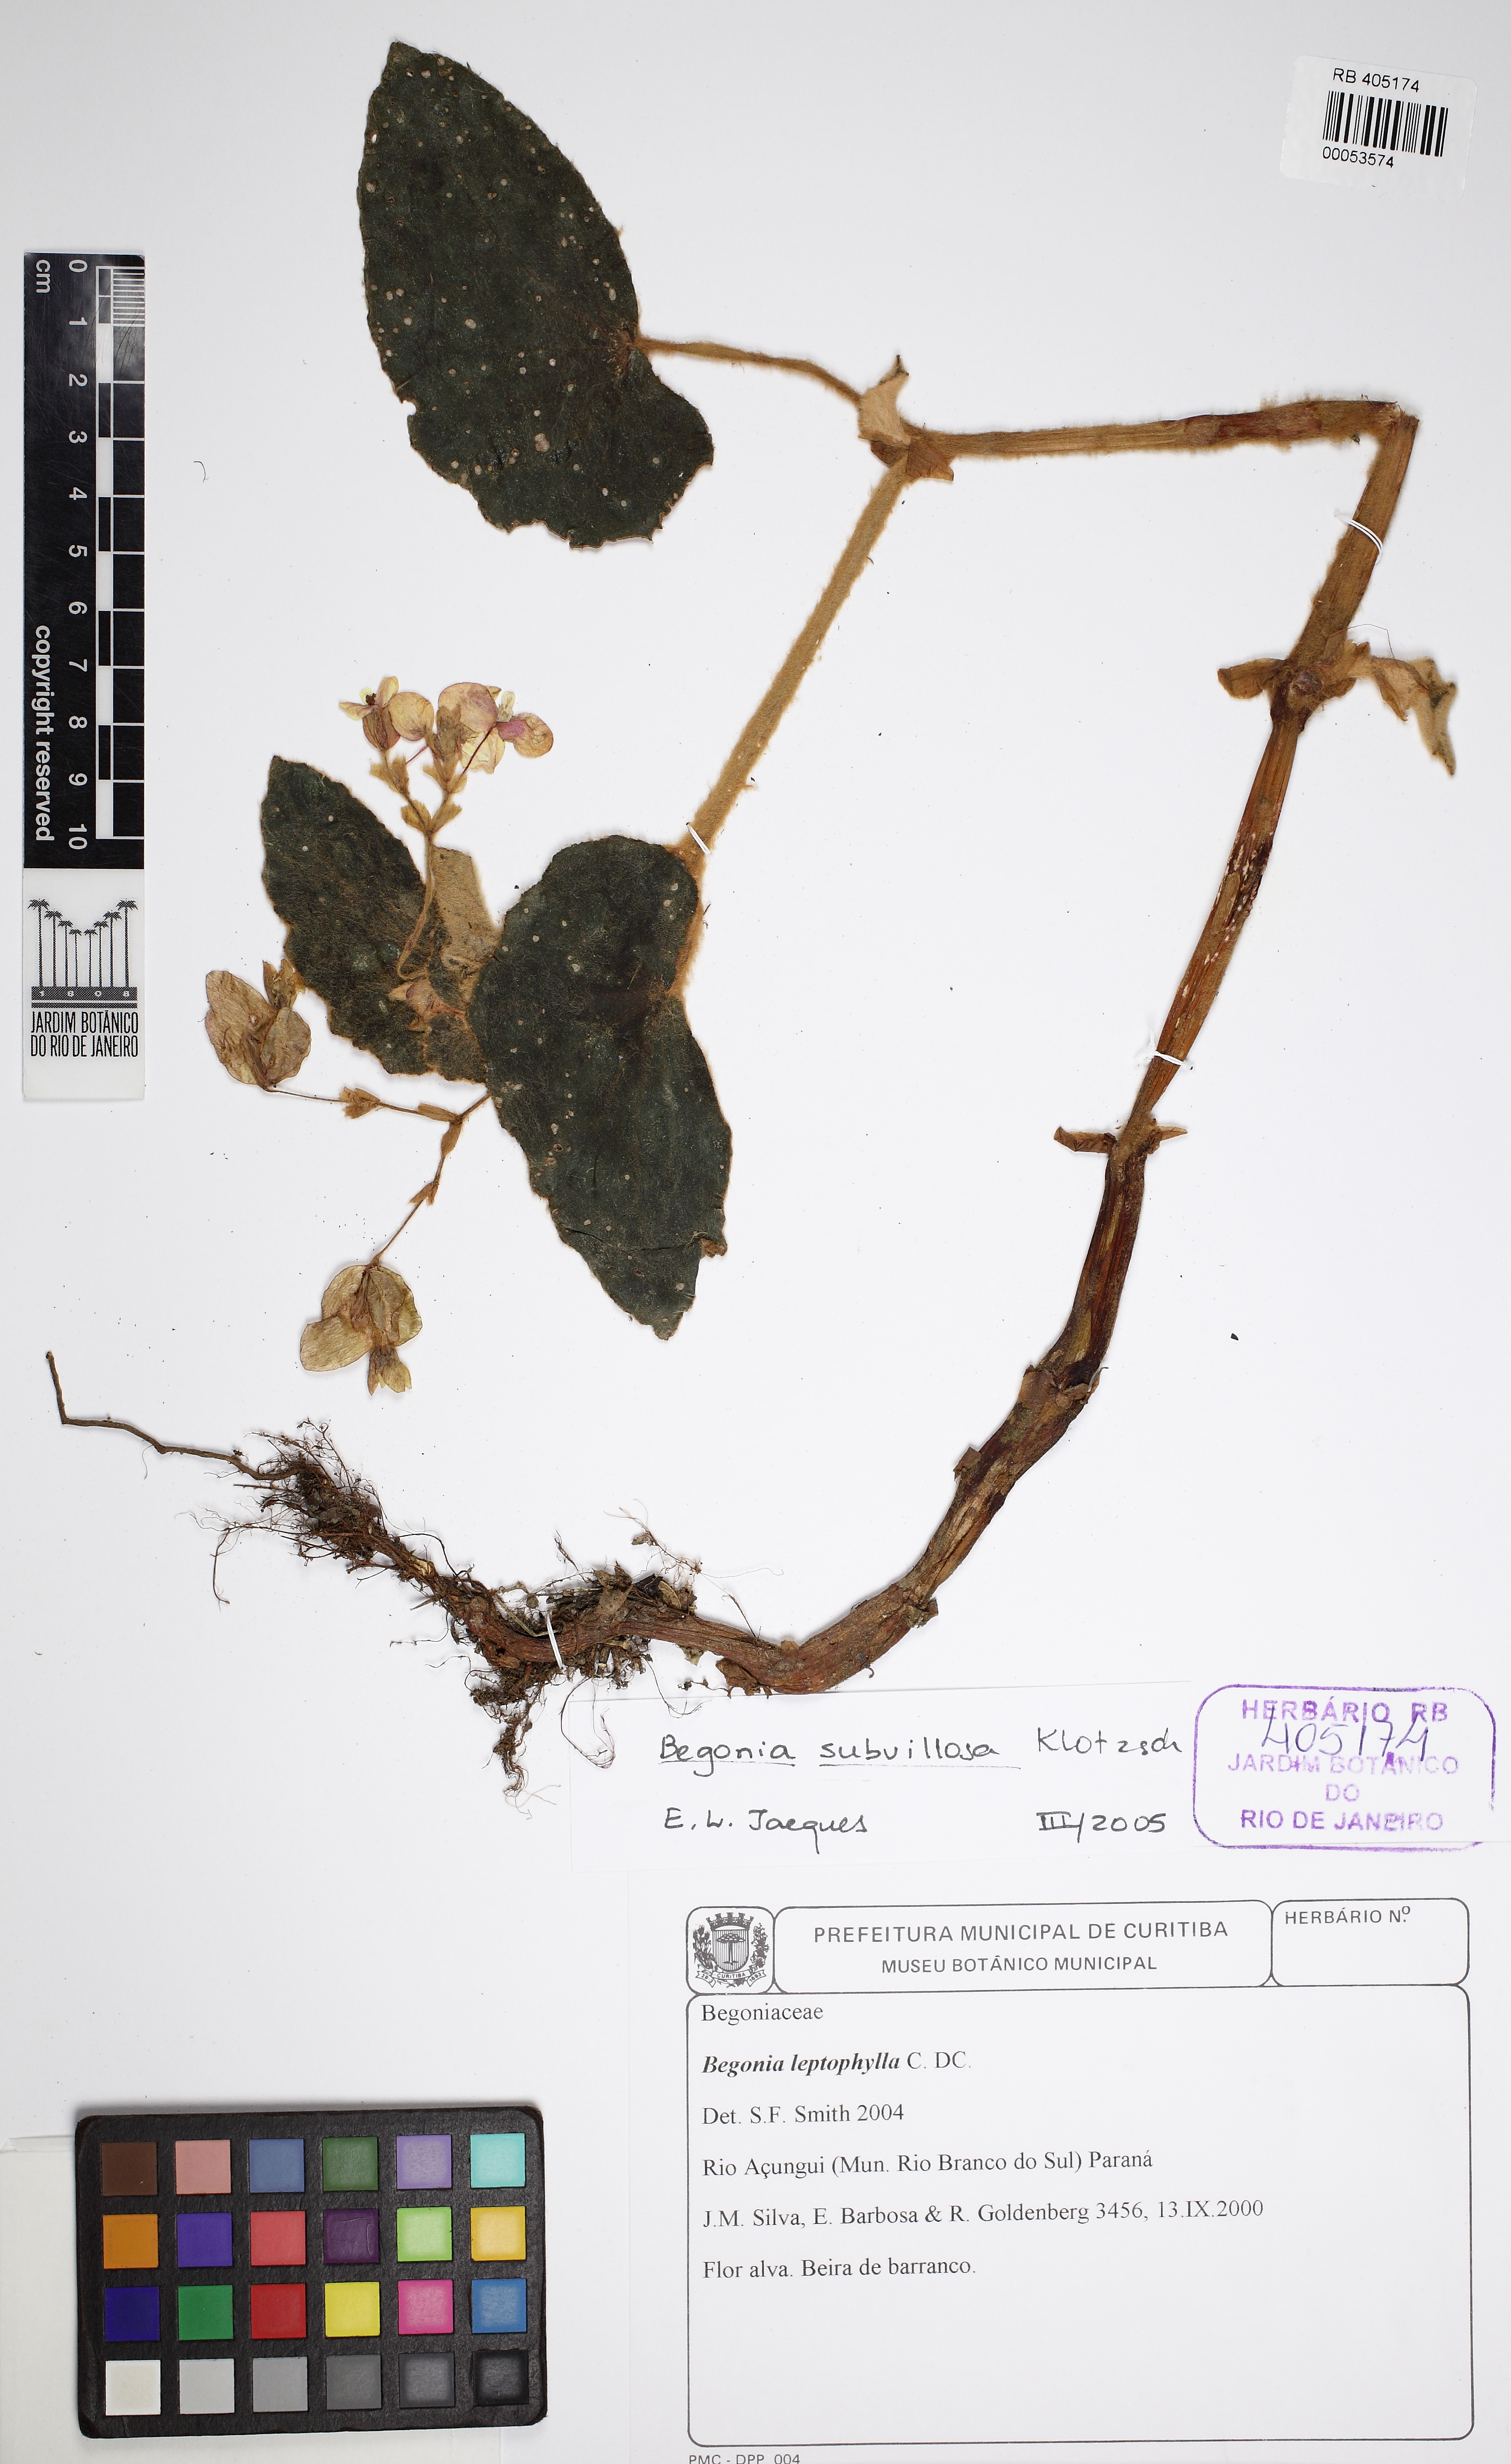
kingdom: Plantae
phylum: Tracheophyta
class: Magnoliopsida
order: Cucurbitales
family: Begoniaceae
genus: Begonia
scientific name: Begonia subvillosa
